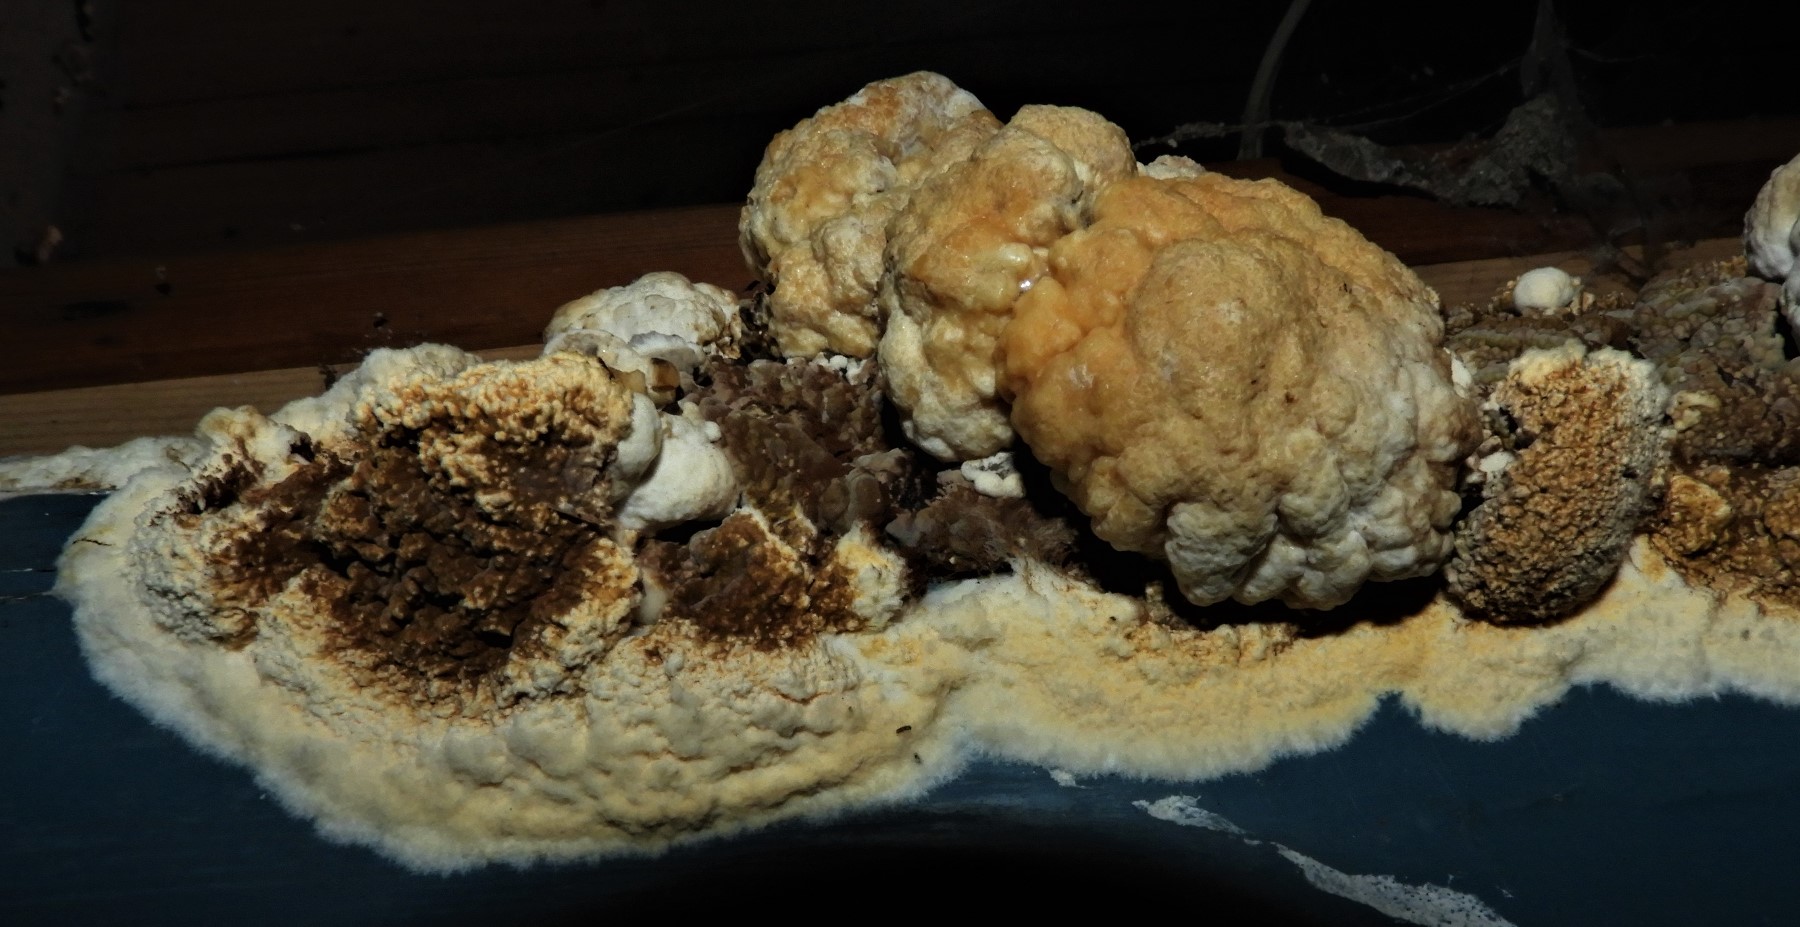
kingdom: Fungi
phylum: Basidiomycota
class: Agaricomycetes
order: Boletales
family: Coniophoraceae
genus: Coniophora
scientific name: Coniophora puteana
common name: gul tømmersvamp
